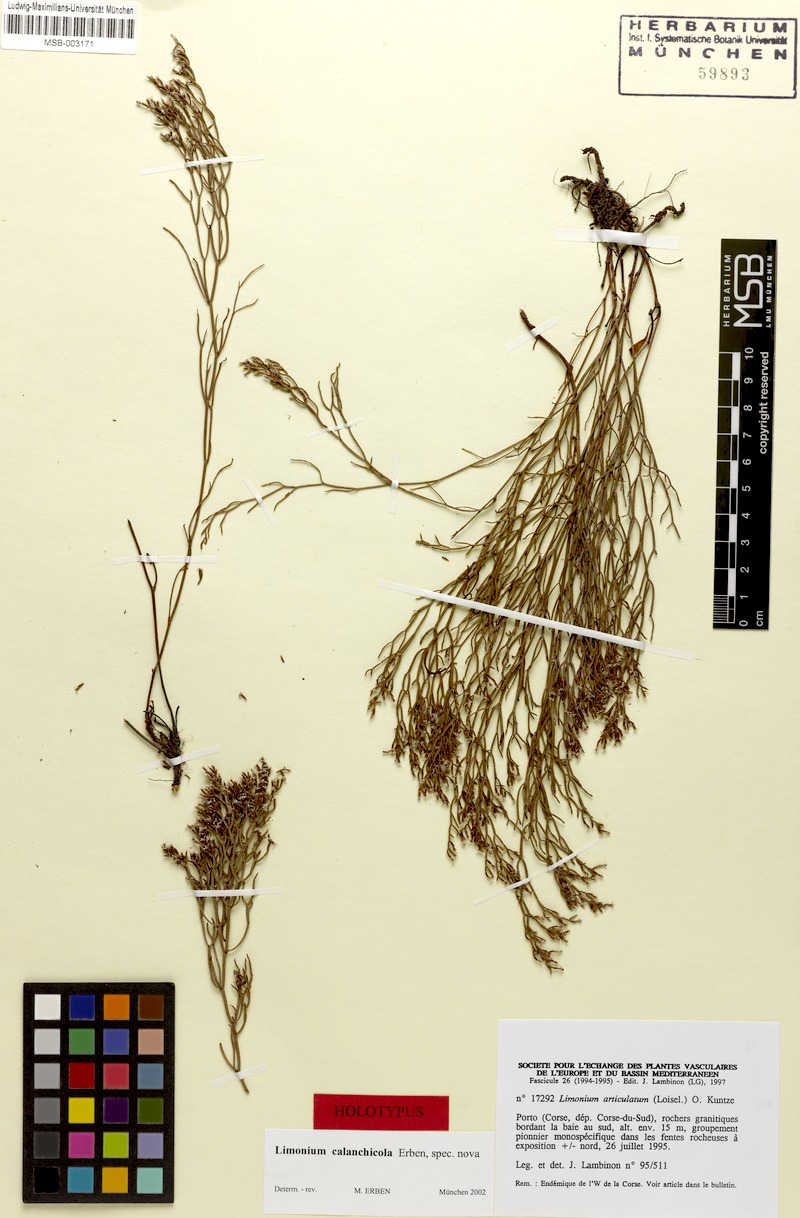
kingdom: Plantae
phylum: Tracheophyta
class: Magnoliopsida
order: Caryophyllales
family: Plumbaginaceae
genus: Limonium
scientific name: Limonium calanchicola
